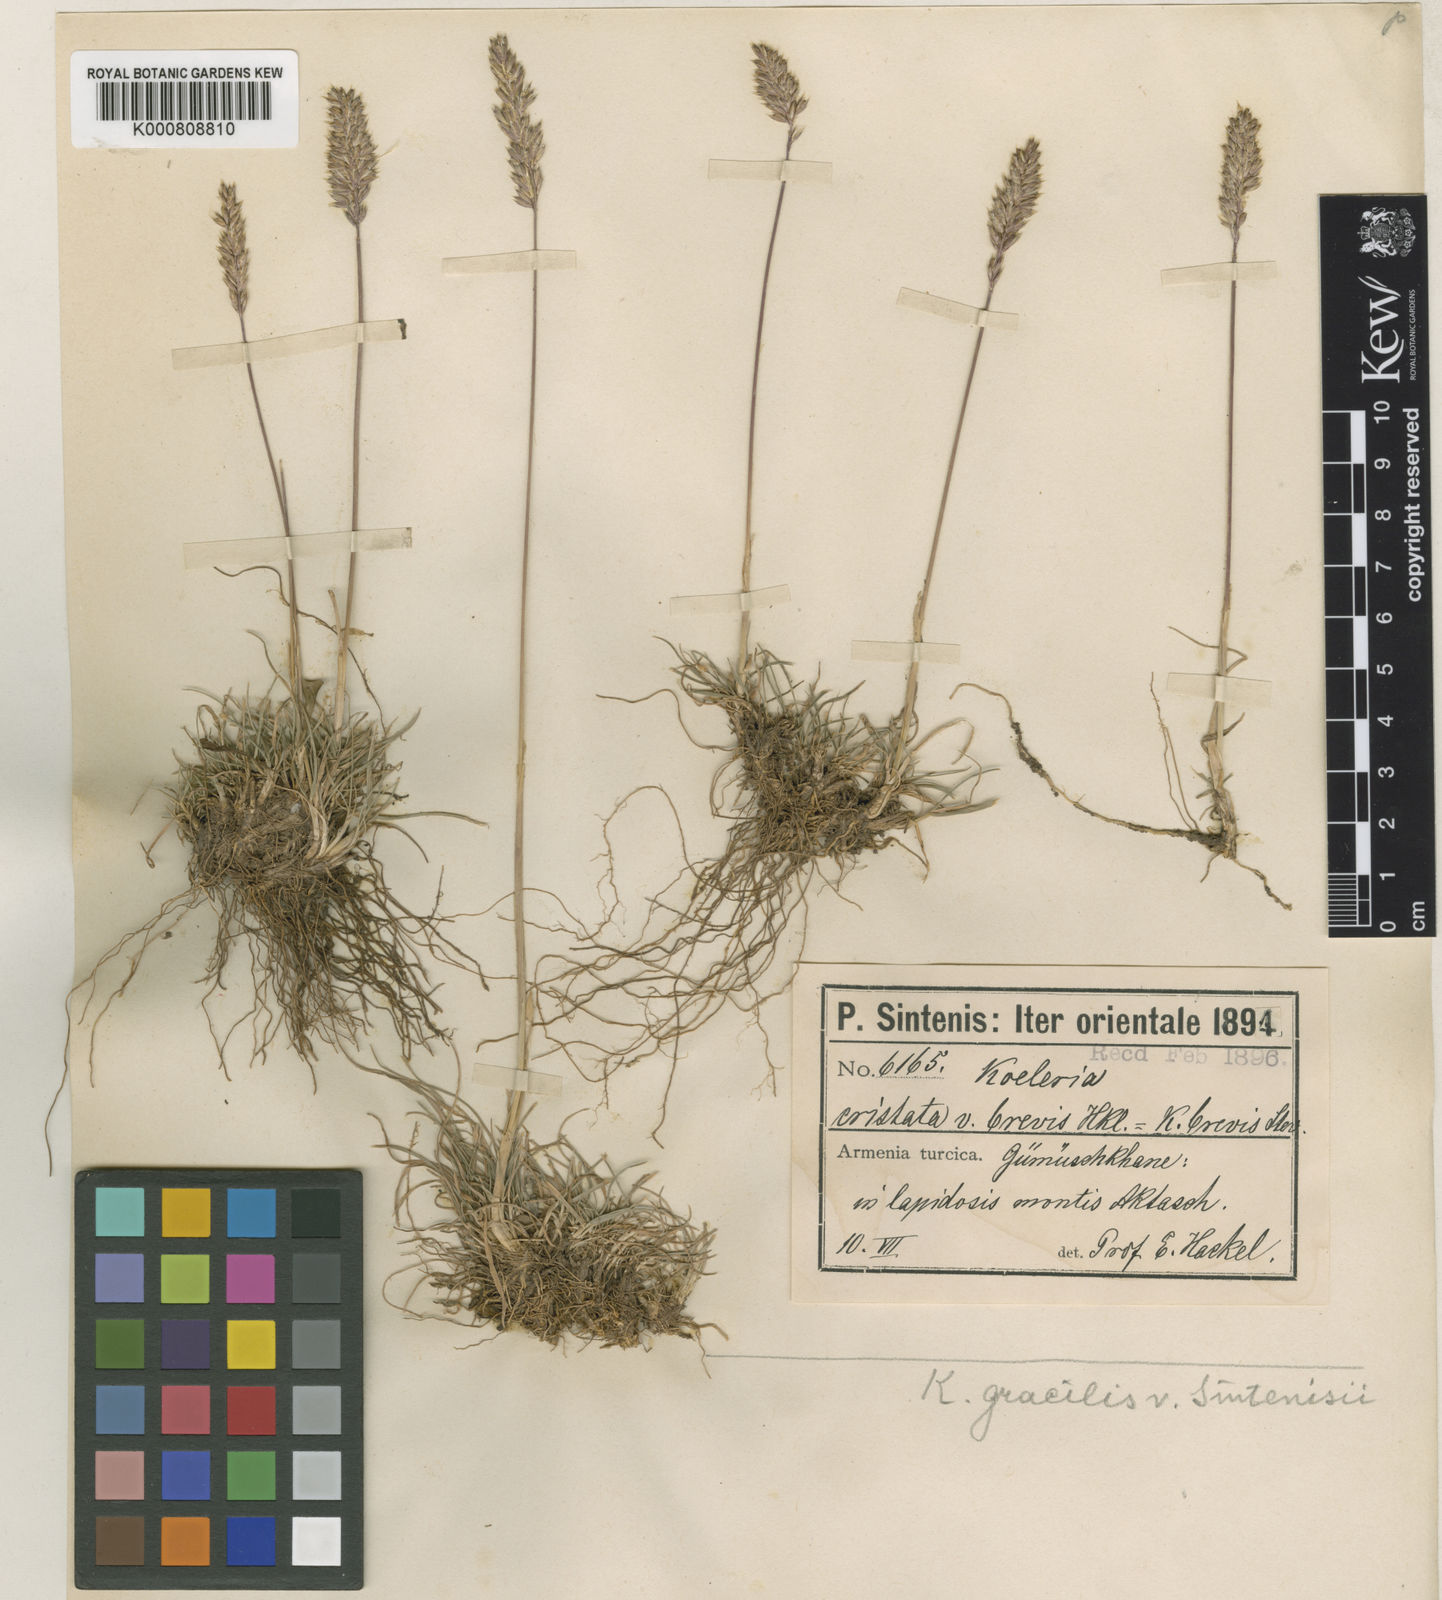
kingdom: Plantae
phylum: Tracheophyta
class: Liliopsida
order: Poales
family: Poaceae
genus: Koeleria
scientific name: Koeleria macrantha
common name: Crested hair-grass
